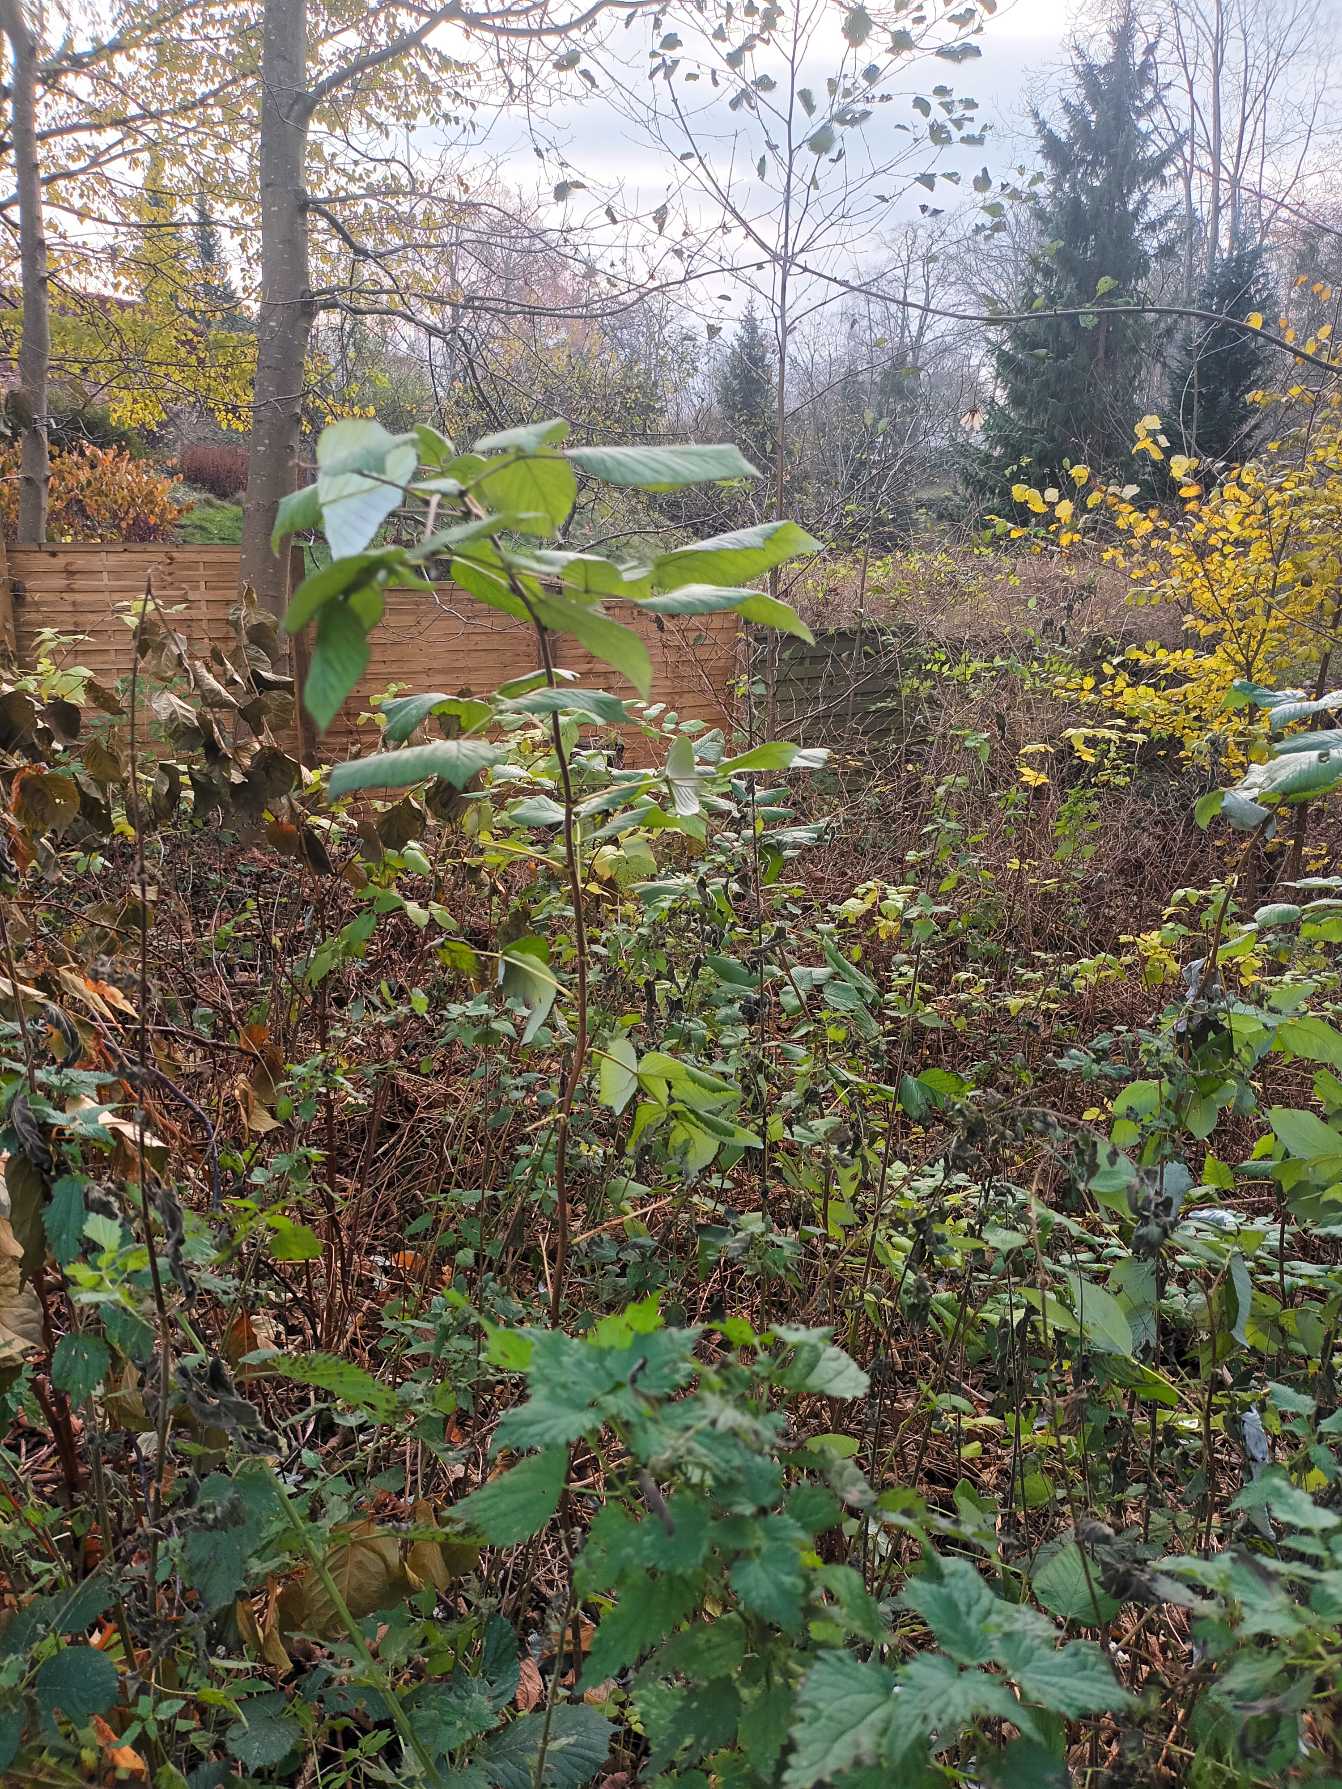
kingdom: Plantae
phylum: Tracheophyta
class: Magnoliopsida
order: Rosales
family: Rosaceae
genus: Rubus
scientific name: Rubus idaeus
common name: Hindbær
